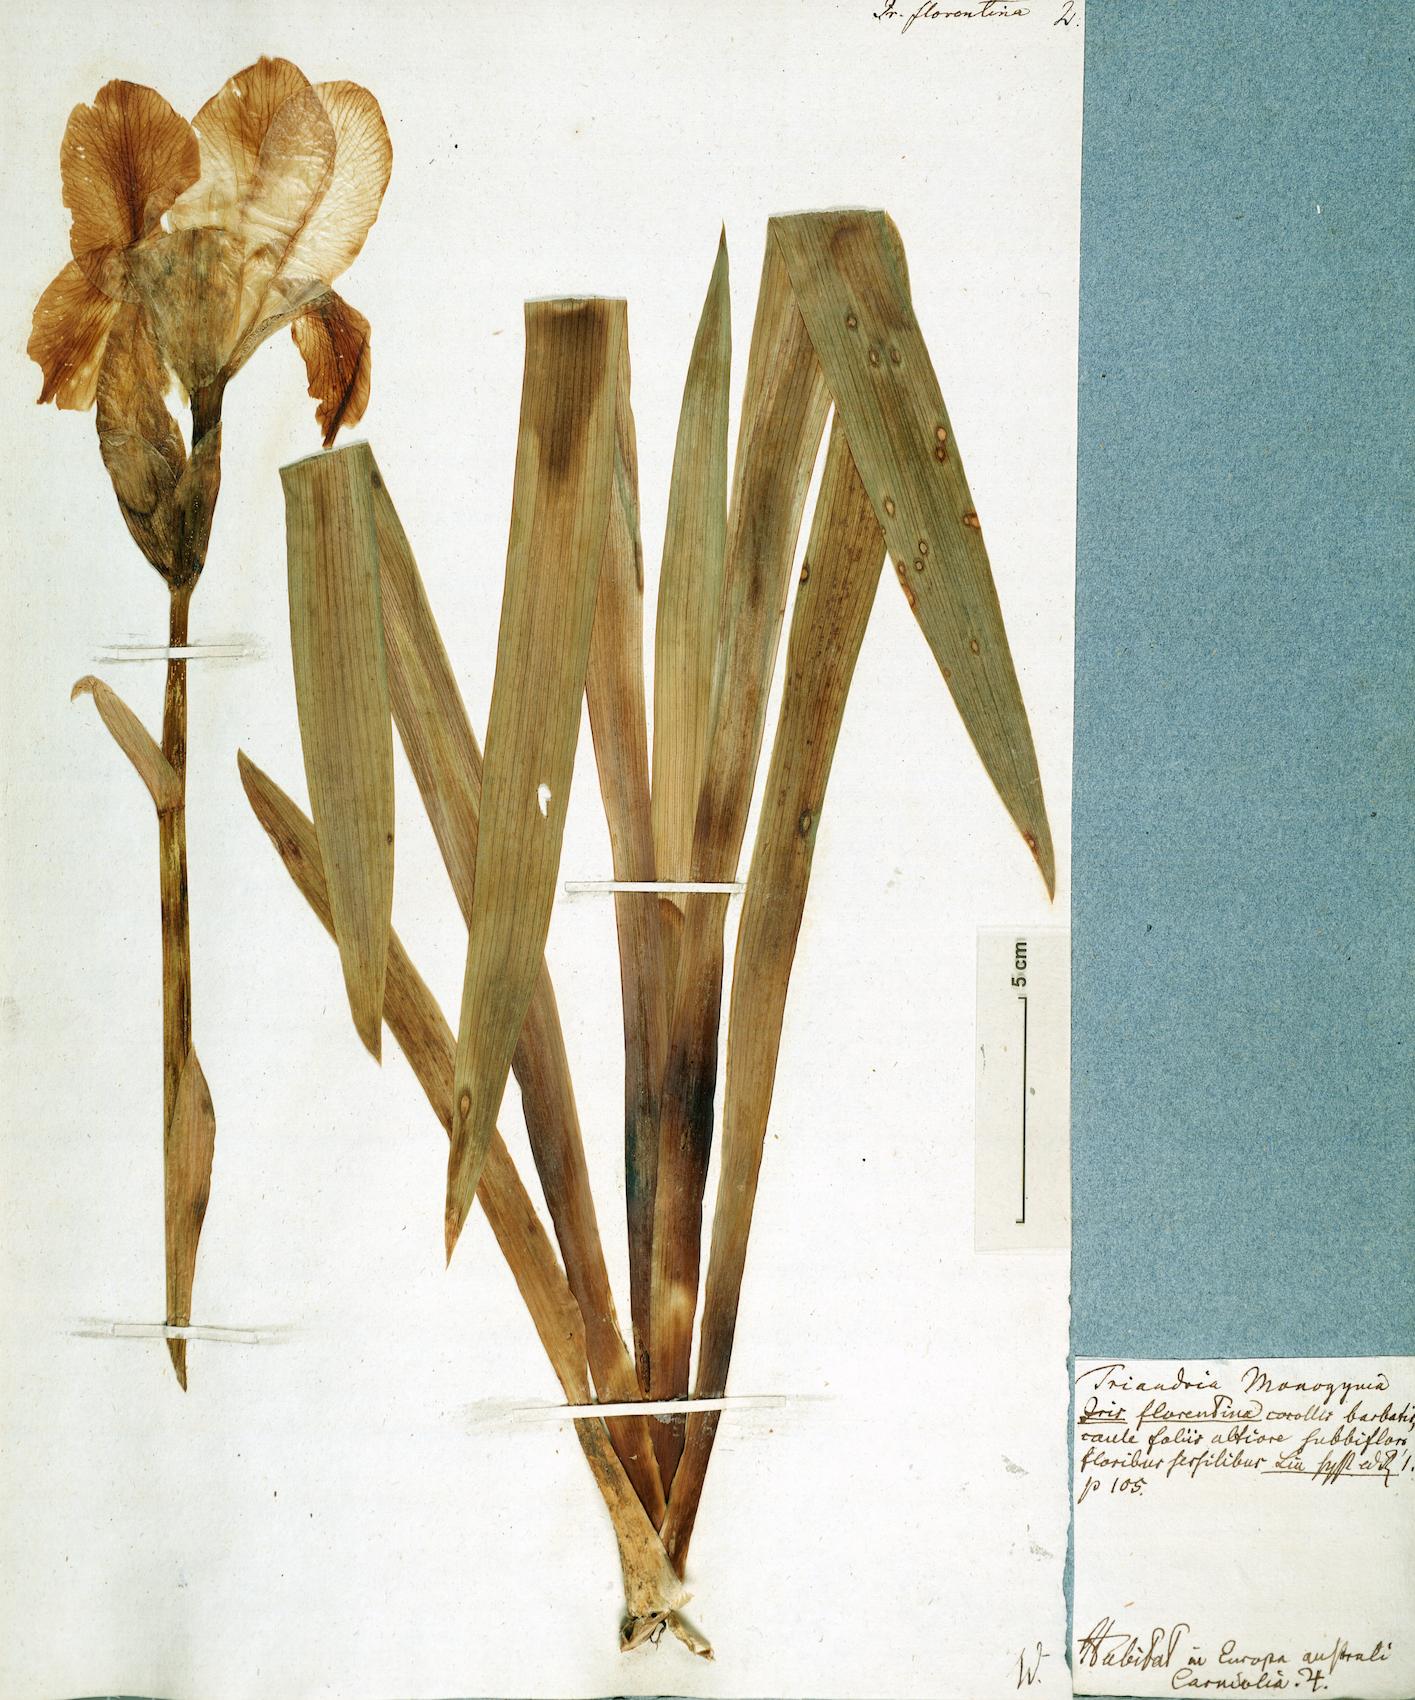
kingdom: Plantae
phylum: Tracheophyta
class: Liliopsida
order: Asparagales
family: Iridaceae
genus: Iris
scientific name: Iris florentina
